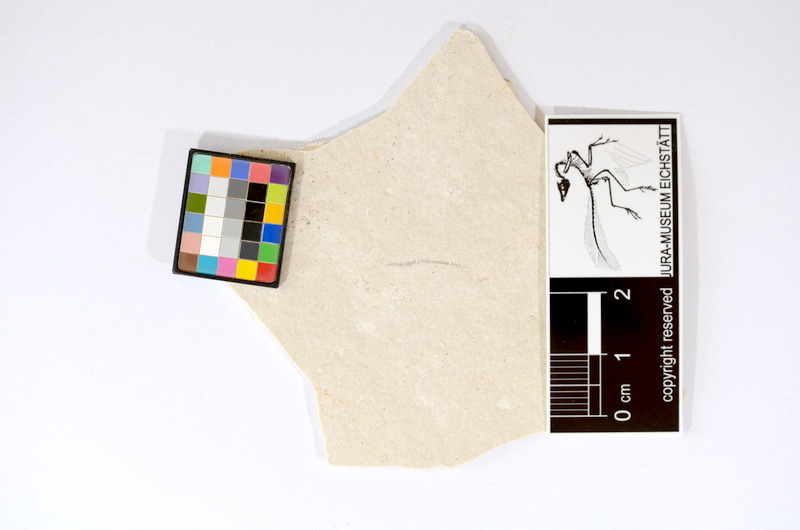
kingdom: Animalia
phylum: Chordata
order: Salmoniformes
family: Orthogonikleithridae
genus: Orthogonikleithrus
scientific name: Orthogonikleithrus hoelli
